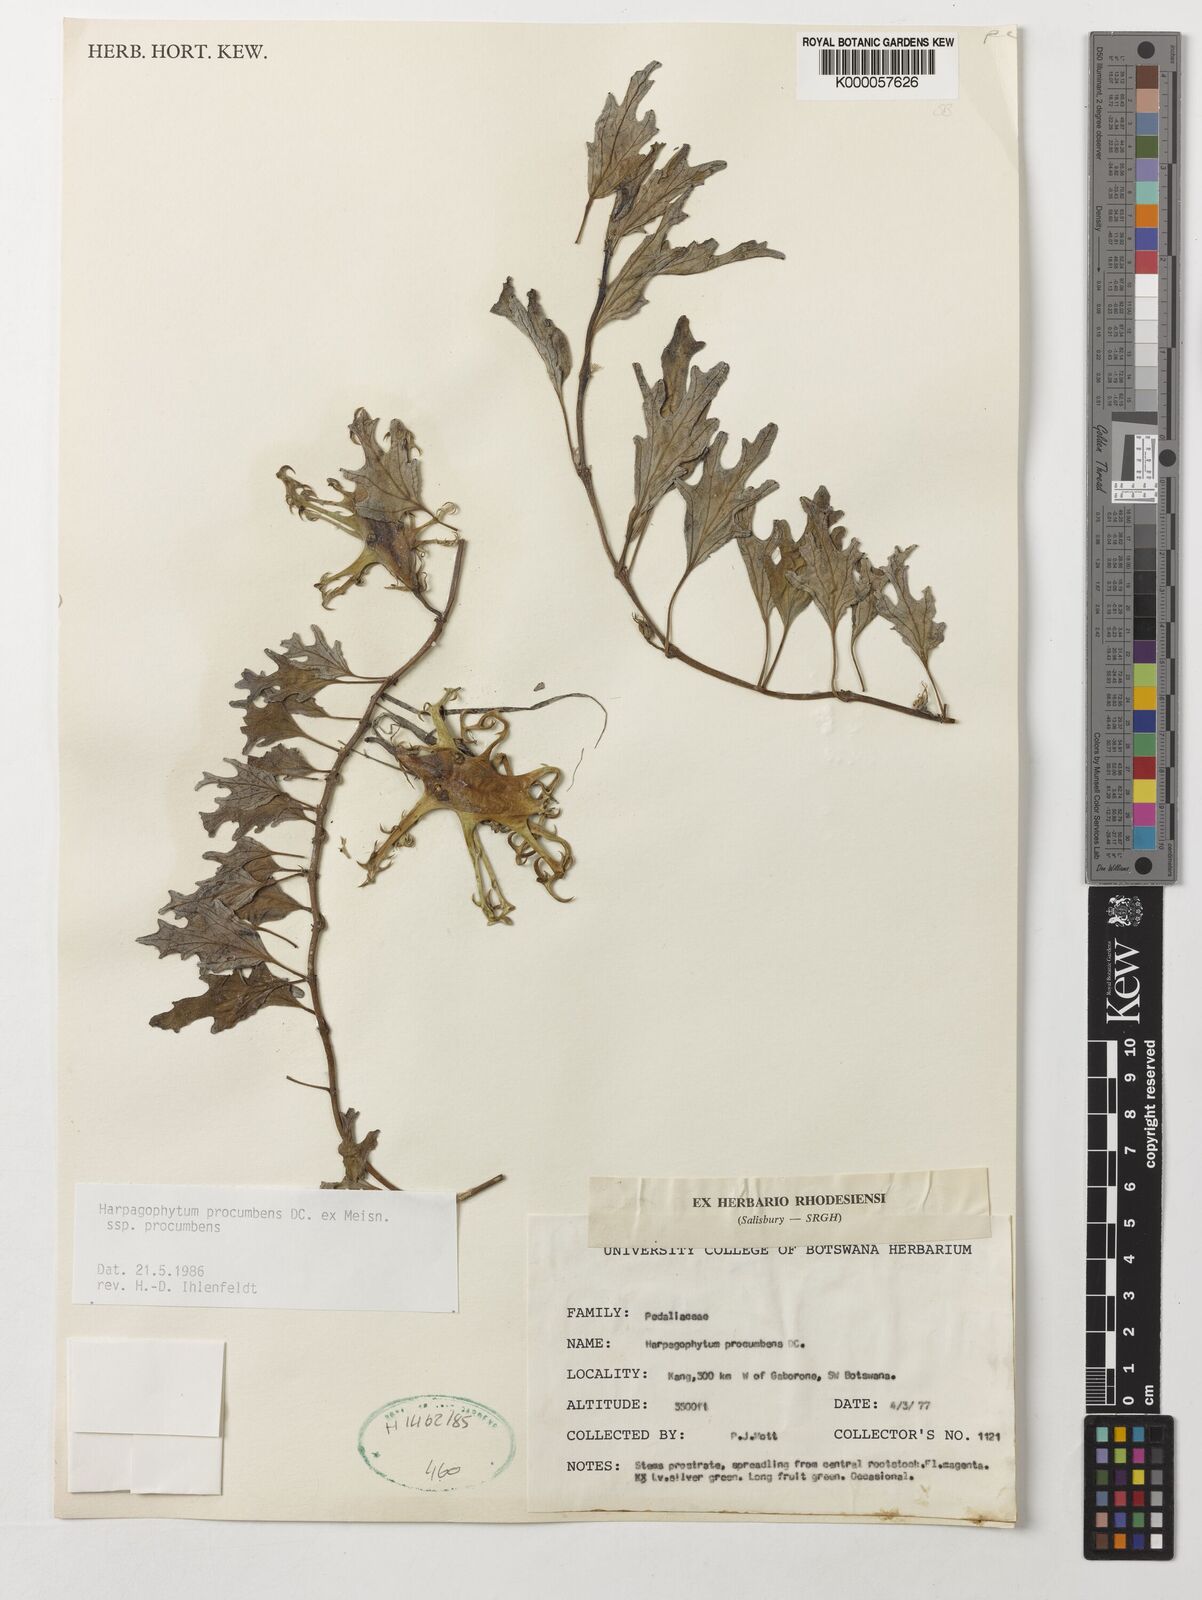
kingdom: Plantae
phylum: Tracheophyta
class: Magnoliopsida
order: Lamiales
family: Pedaliaceae
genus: Harpagophytum
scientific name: Harpagophytum procumbens
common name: Grappleplant
